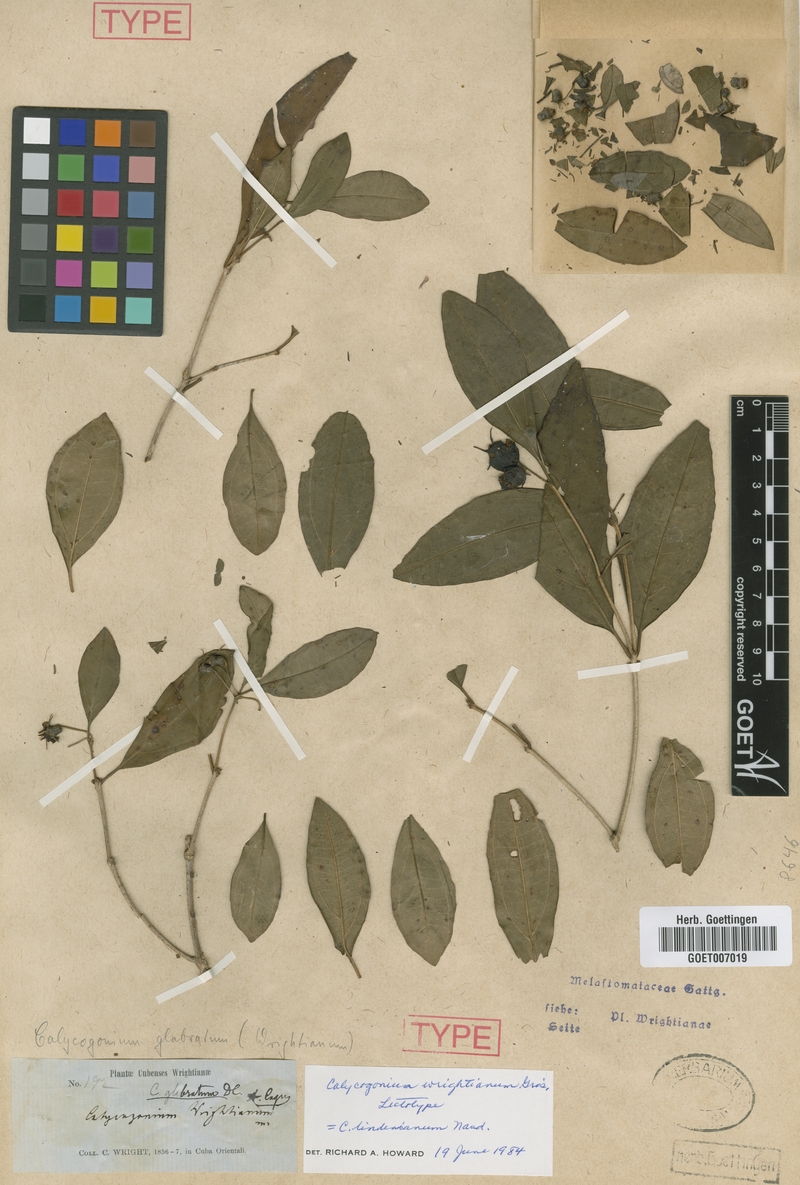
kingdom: Plantae
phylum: Tracheophyta
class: Magnoliopsida
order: Myrtales
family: Melastomataceae
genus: Miconia
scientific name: Miconia lindeniana
